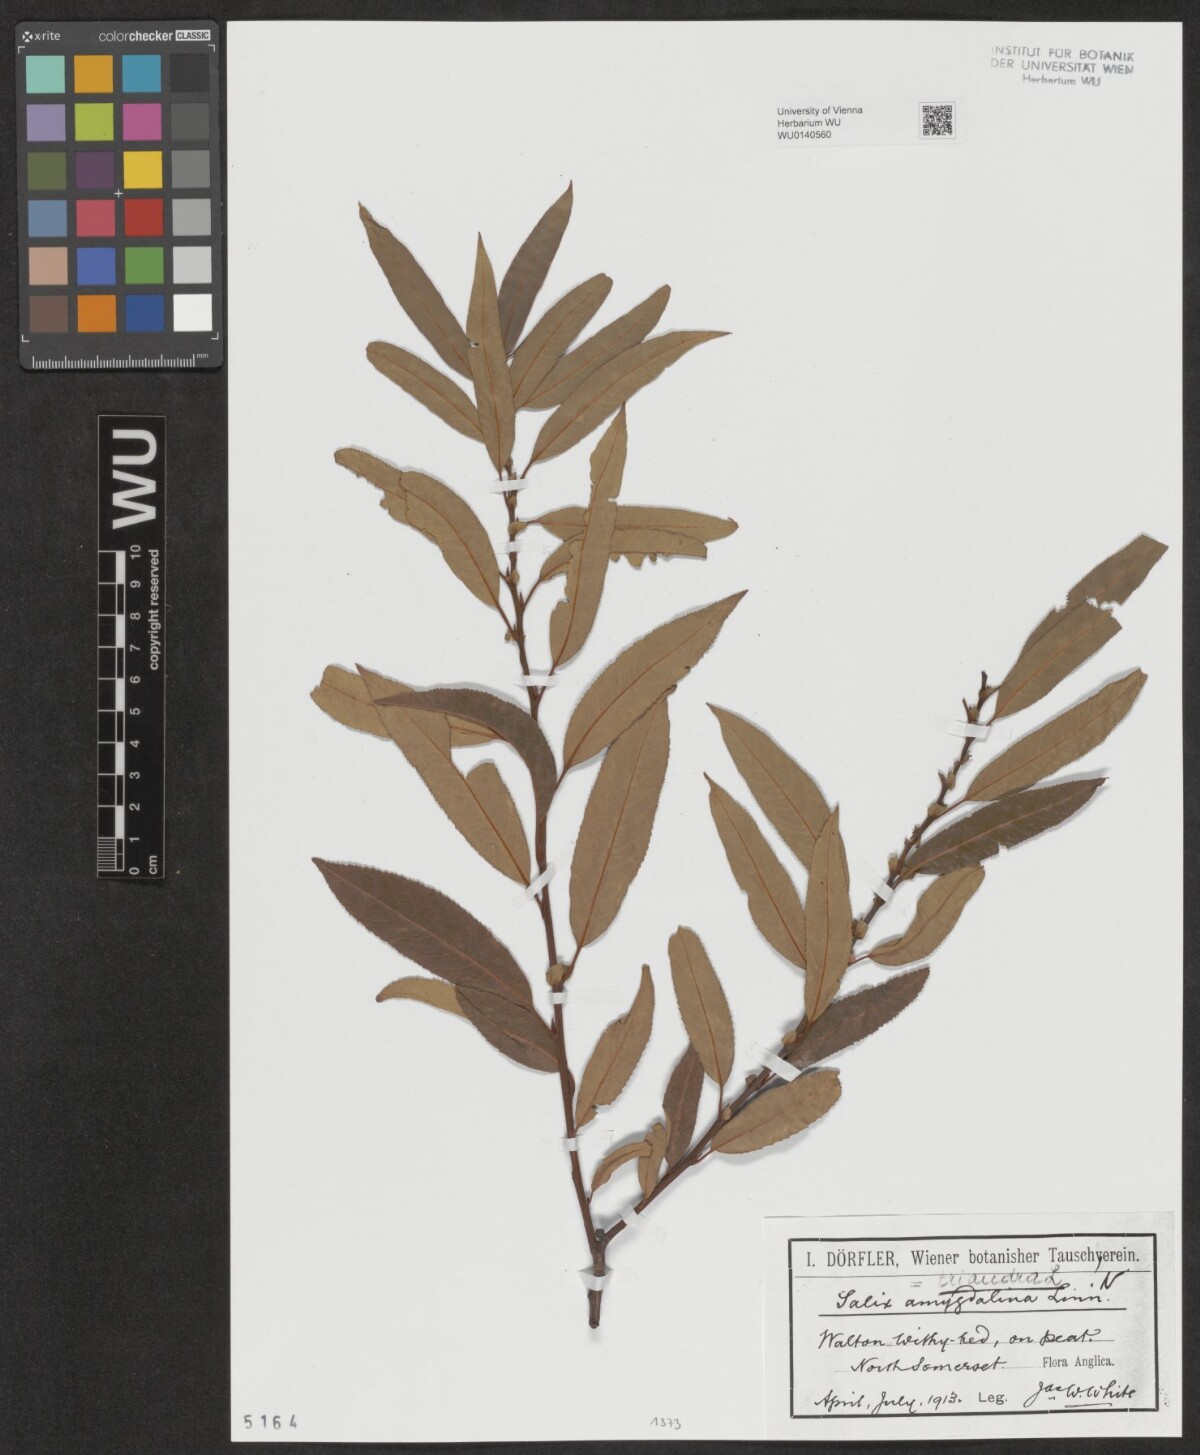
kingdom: Plantae
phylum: Tracheophyta
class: Magnoliopsida
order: Malpighiales
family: Salicaceae
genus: Salix
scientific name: Salix triandra
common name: Almond willow
